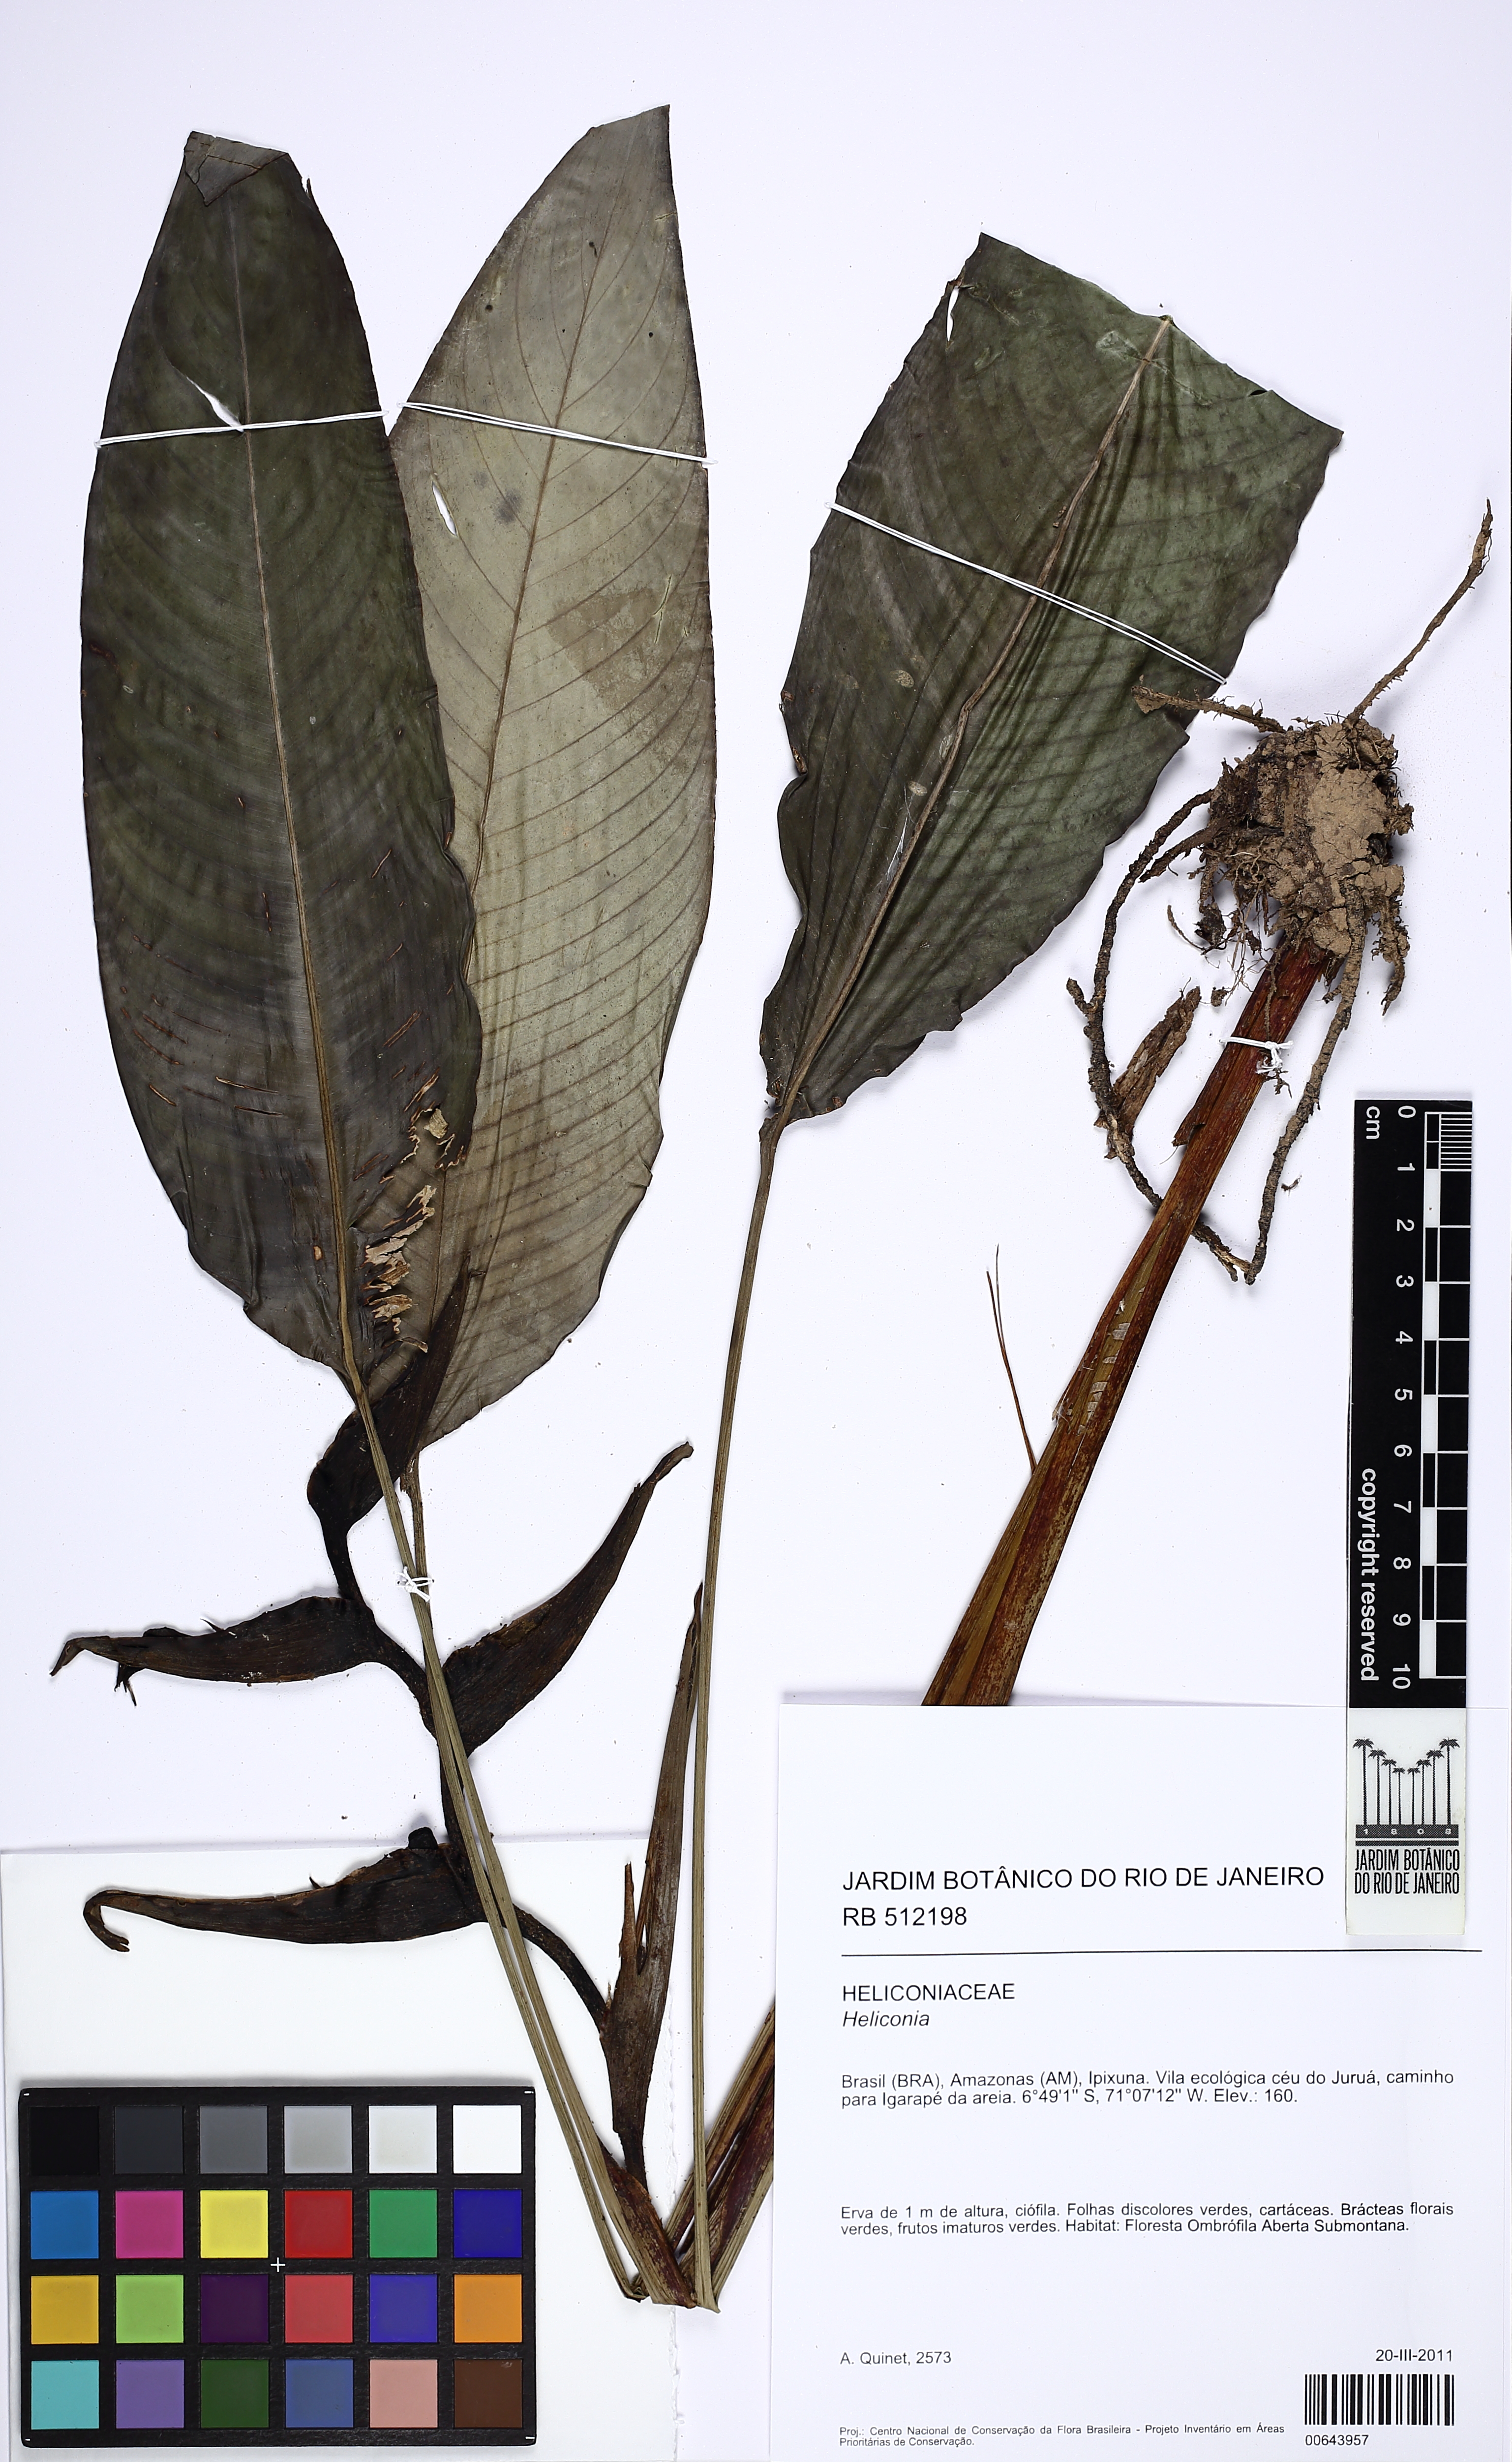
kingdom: Plantae
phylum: Tracheophyta
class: Liliopsida
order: Zingiberales
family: Heliconiaceae
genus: Heliconia
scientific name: Heliconia lourteigiae
